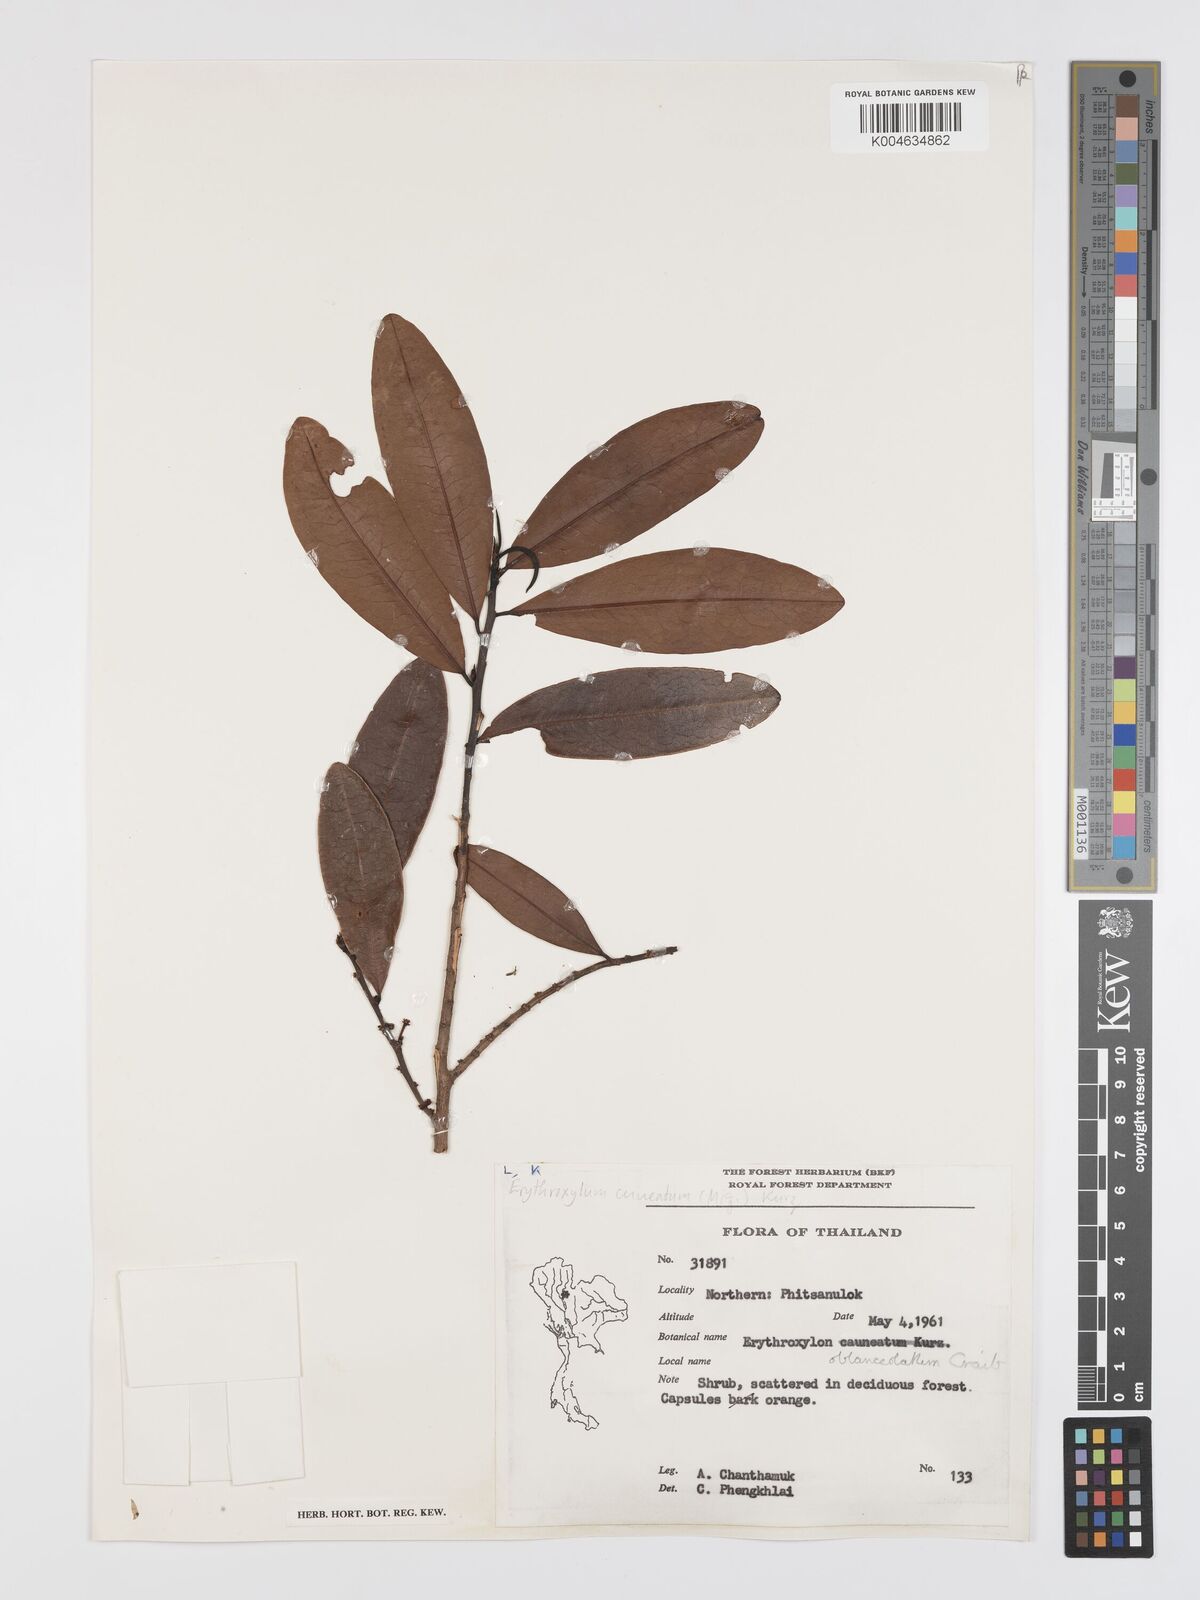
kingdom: Plantae
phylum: Tracheophyta
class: Magnoliopsida
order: Malpighiales
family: Erythroxylaceae
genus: Erythroxylum
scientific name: Erythroxylum cuneatum
